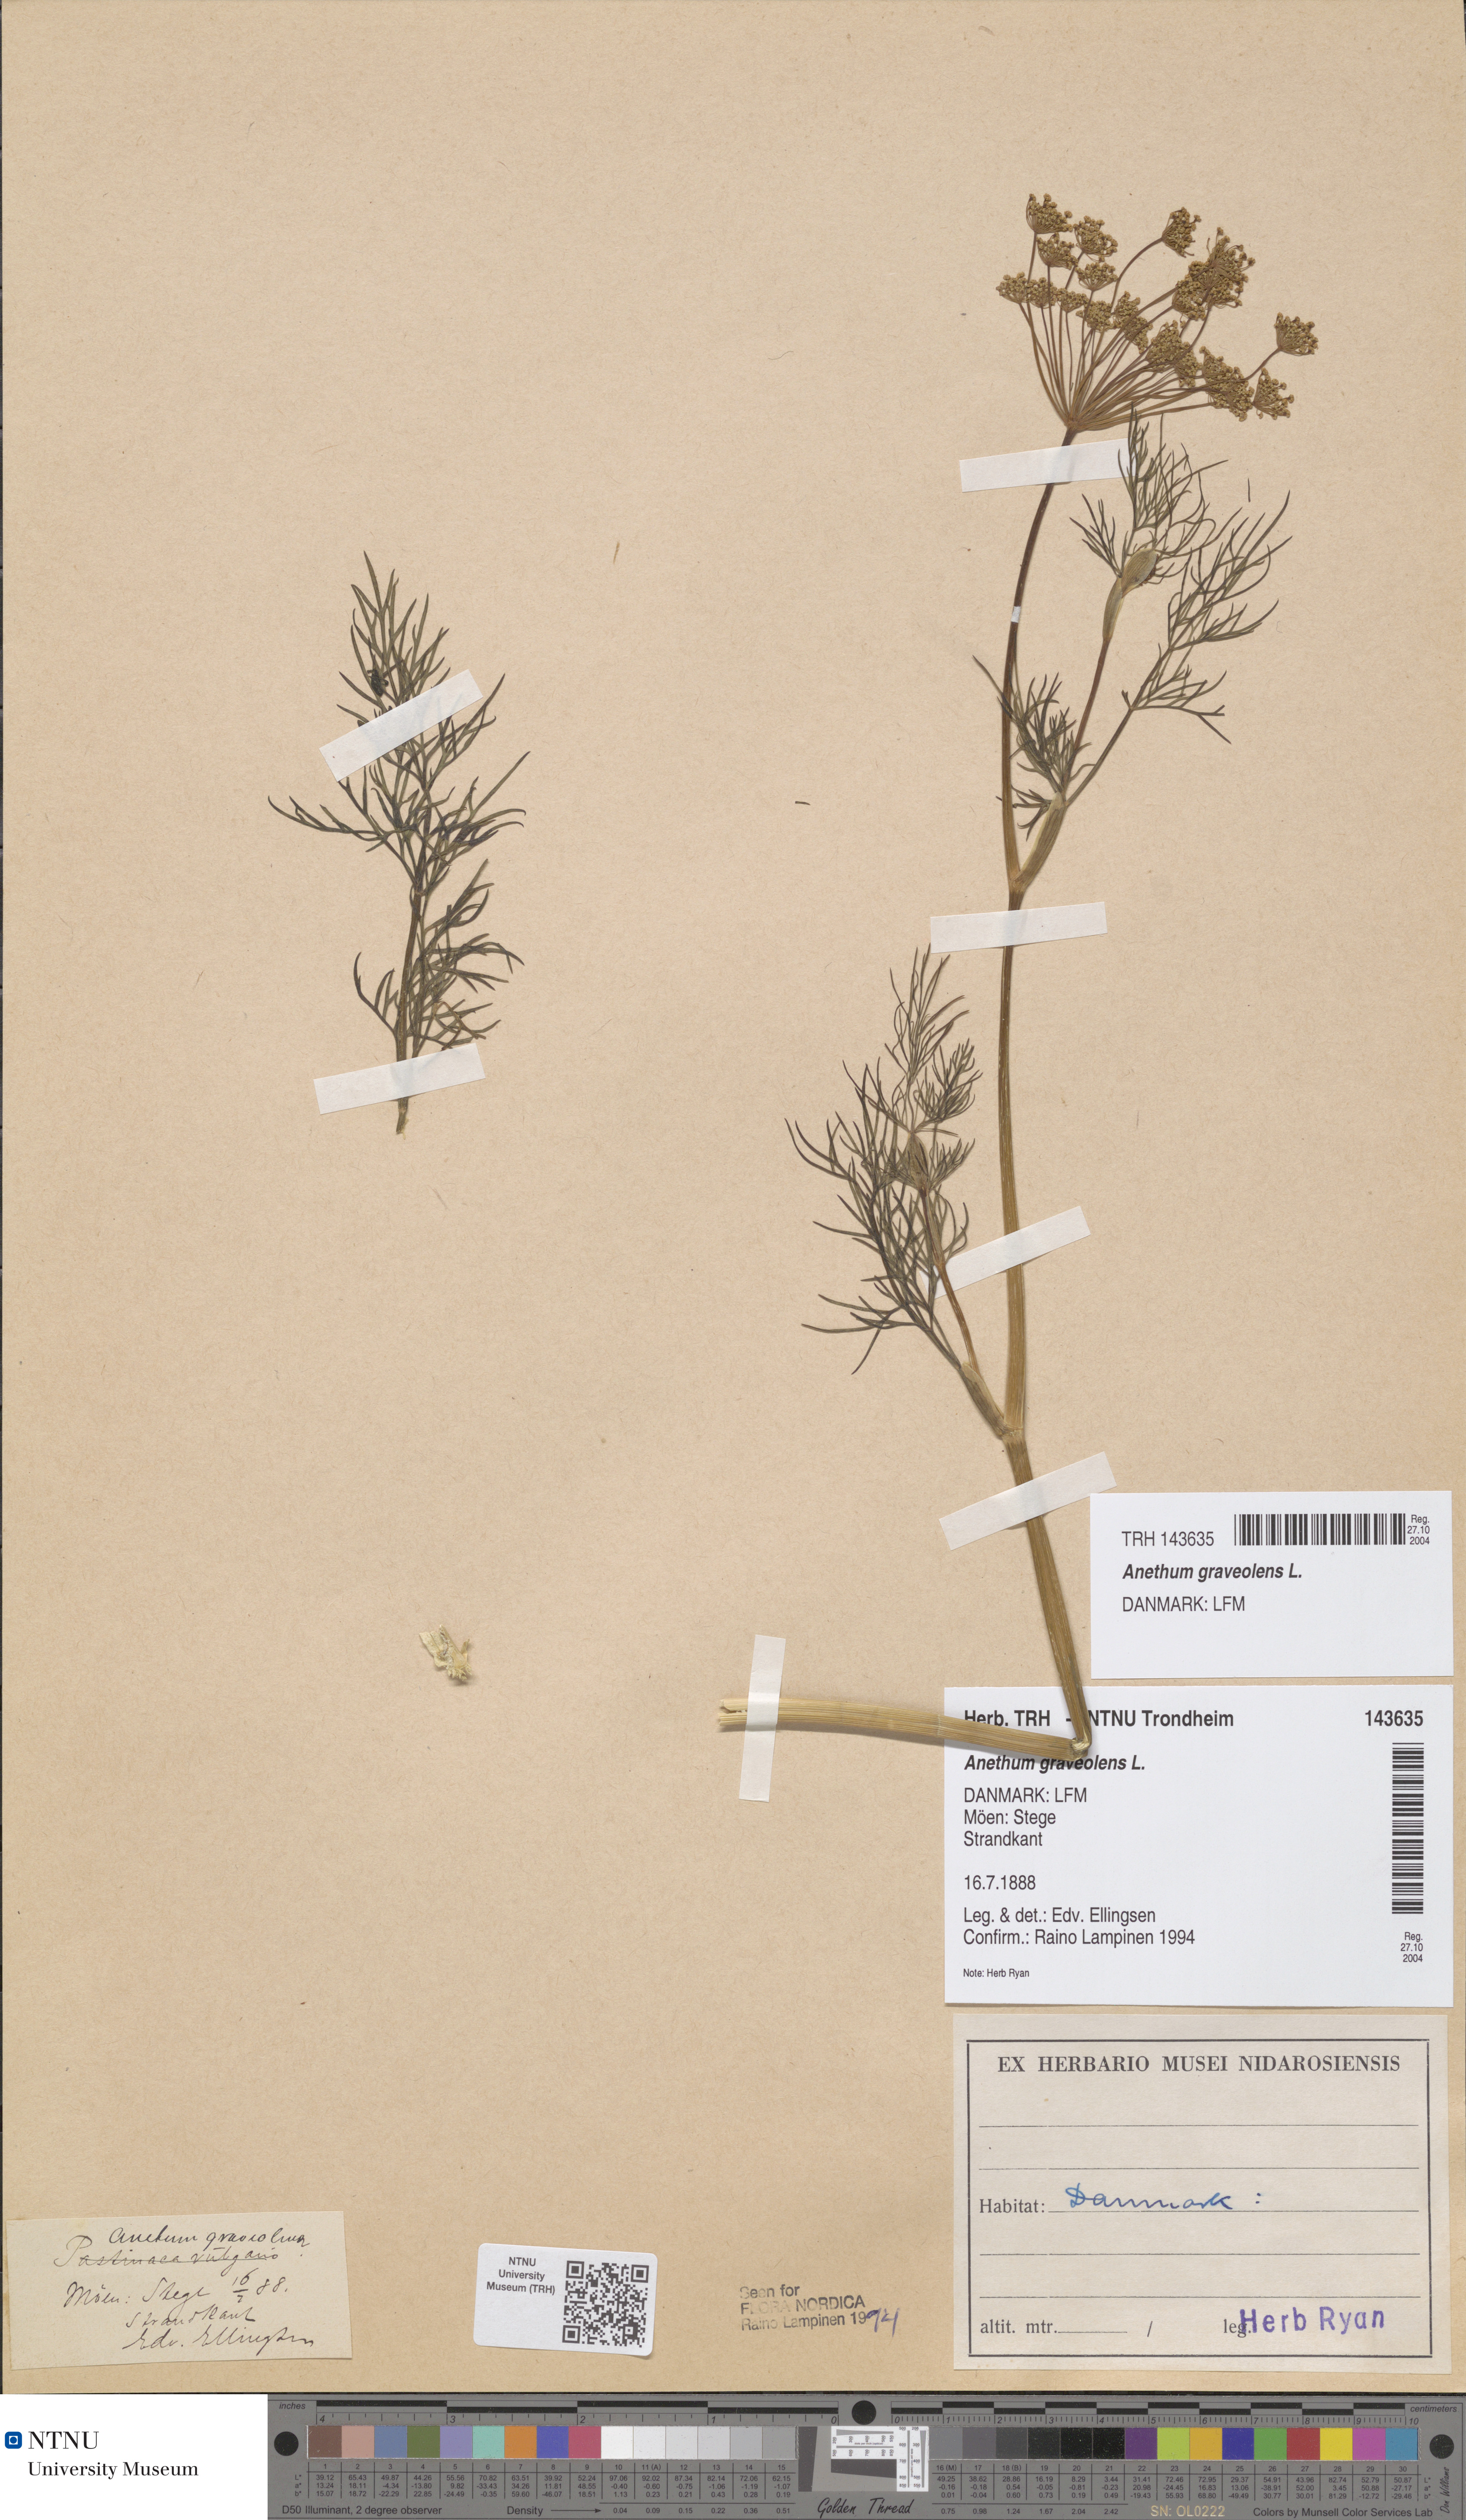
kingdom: Plantae
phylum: Tracheophyta
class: Magnoliopsida
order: Apiales
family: Apiaceae
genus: Anethum
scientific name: Anethum graveolens
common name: Dill
